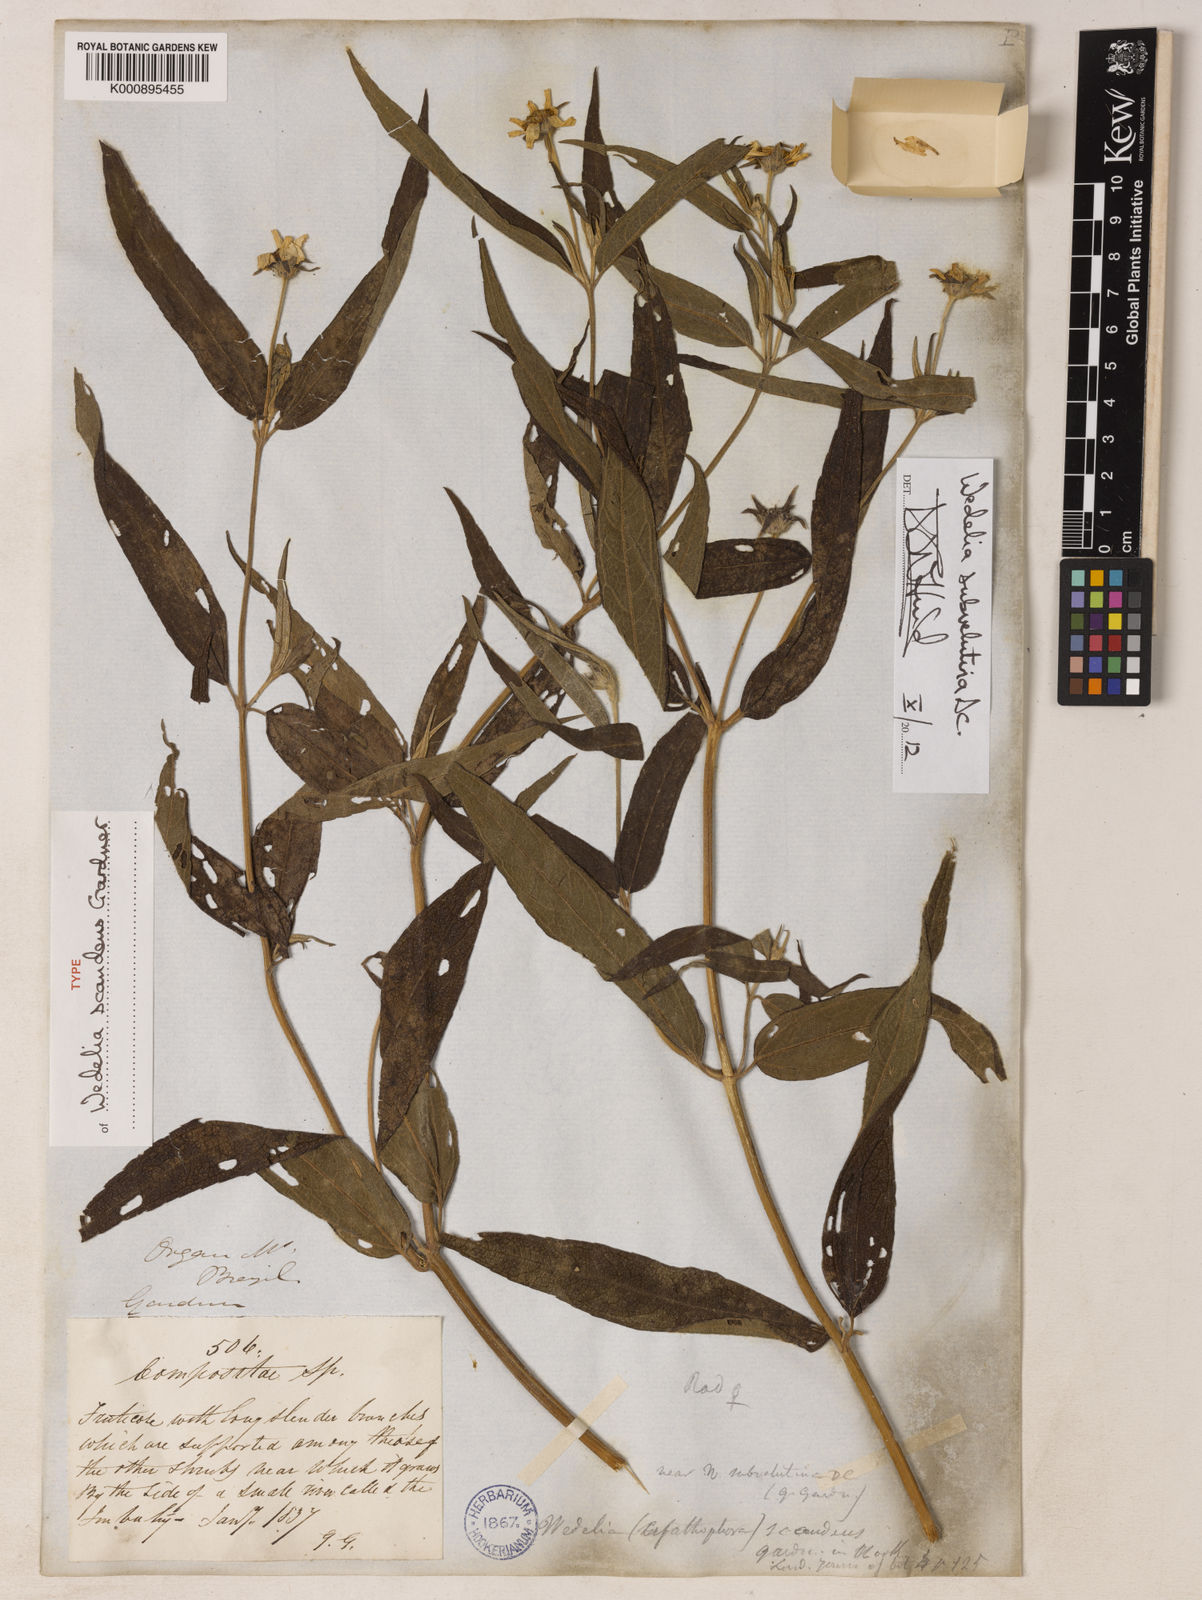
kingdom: Plantae
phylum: Tracheophyta
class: Magnoliopsida
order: Asterales
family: Asteraceae
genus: Wedelia
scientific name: Wedelia subvelutina
